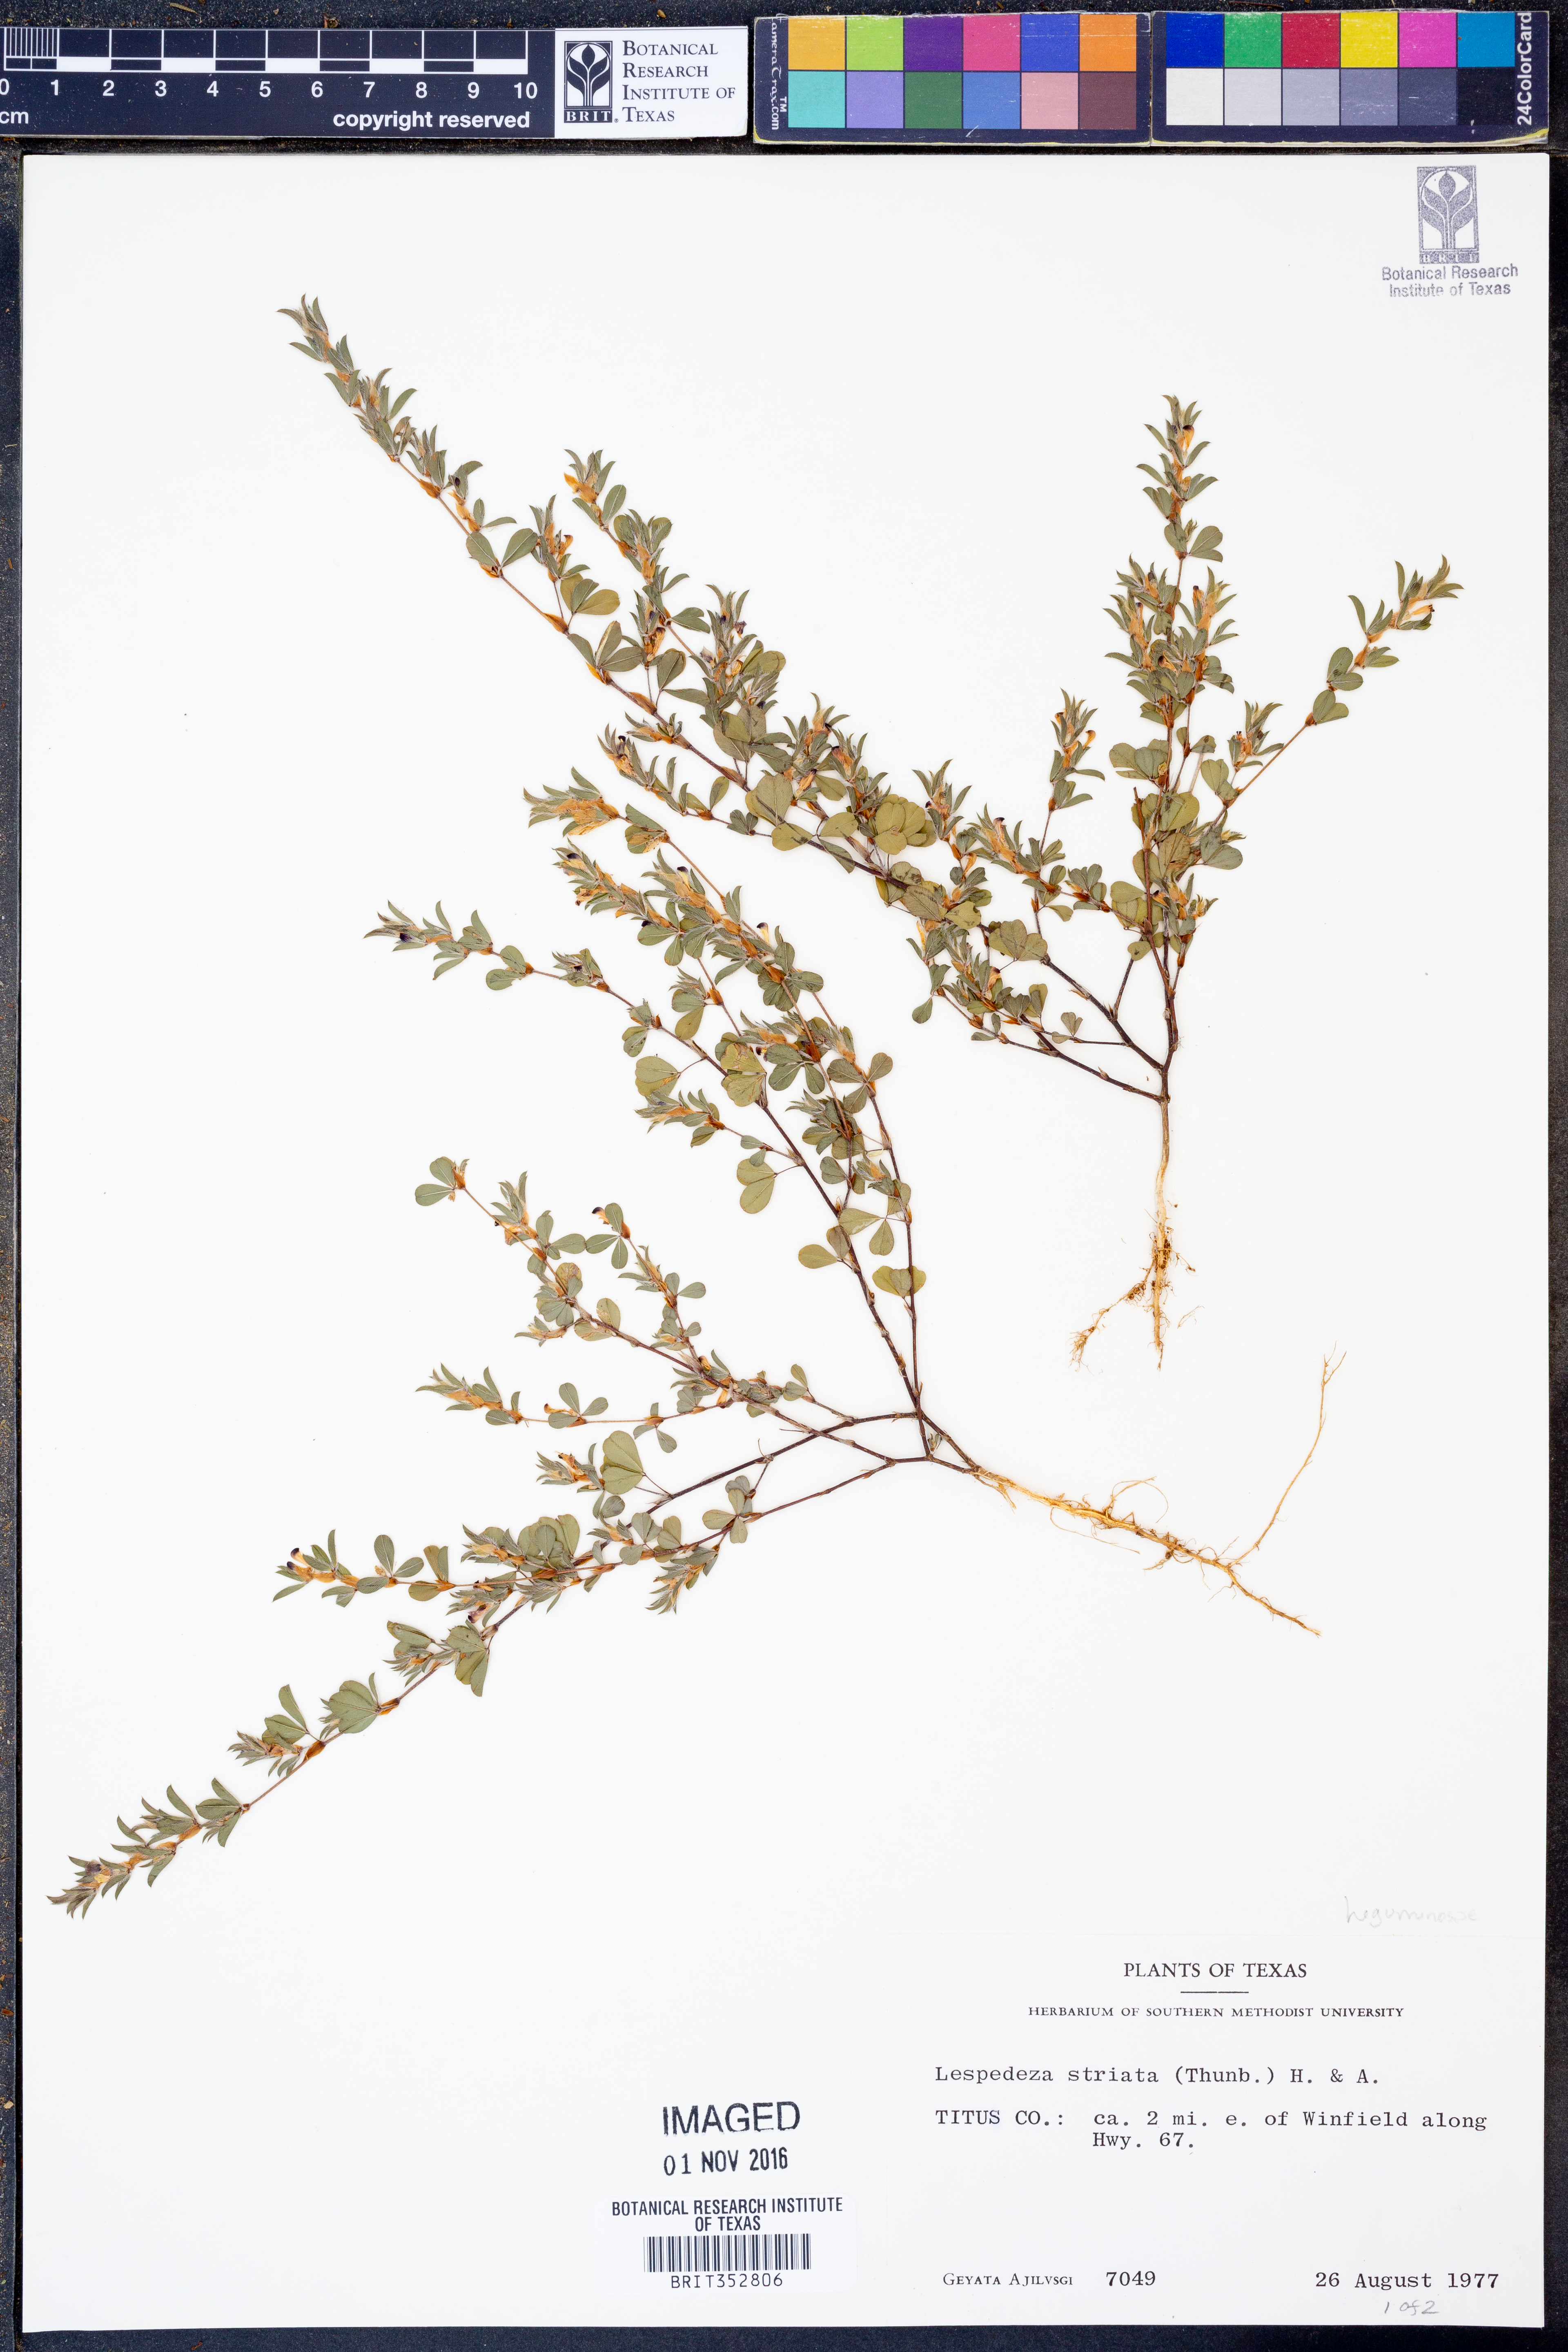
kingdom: Plantae
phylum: Tracheophyta
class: Magnoliopsida
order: Fabales
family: Fabaceae
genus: Kummerowia
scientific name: Kummerowia striata
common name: Japanese clover
